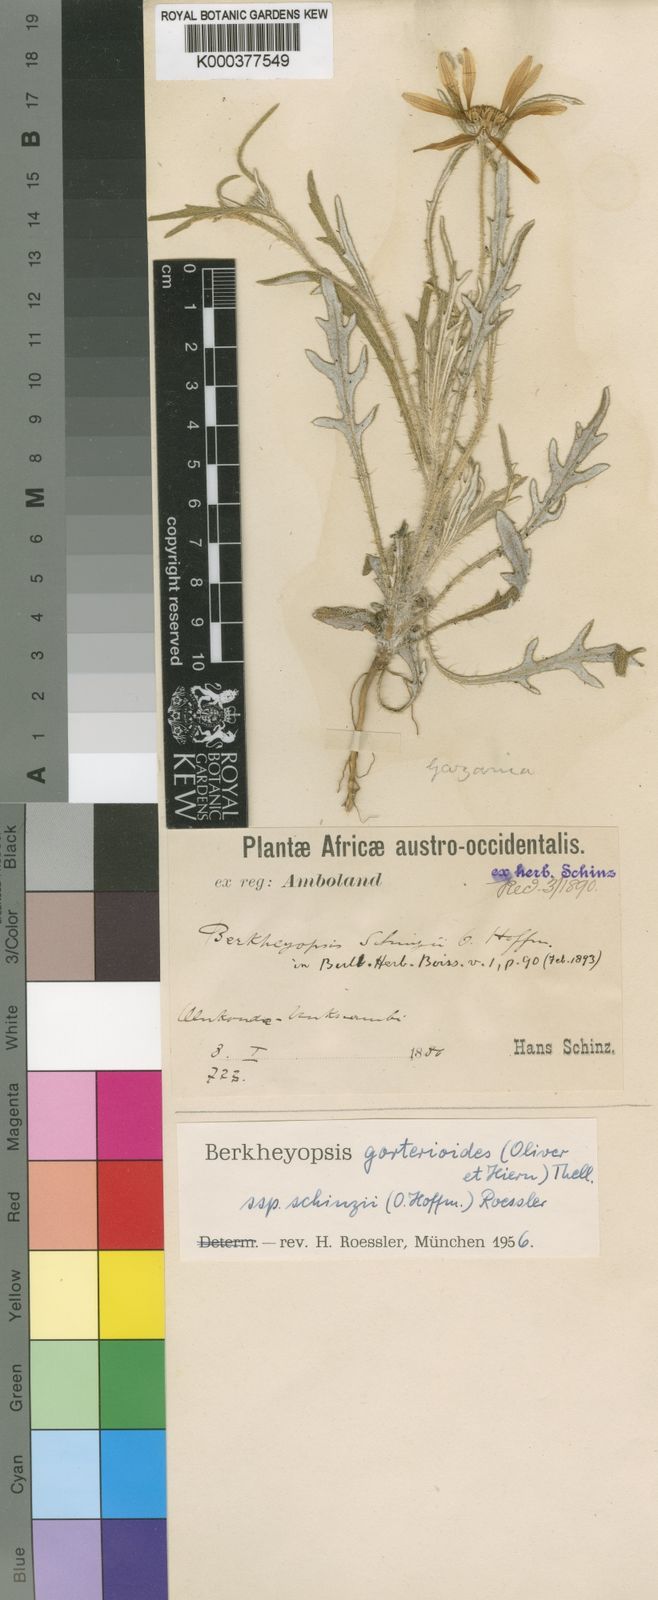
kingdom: Plantae
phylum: Tracheophyta
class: Magnoliopsida
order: Asterales
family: Asteraceae
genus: Roessleria
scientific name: Roessleria gorterioides
